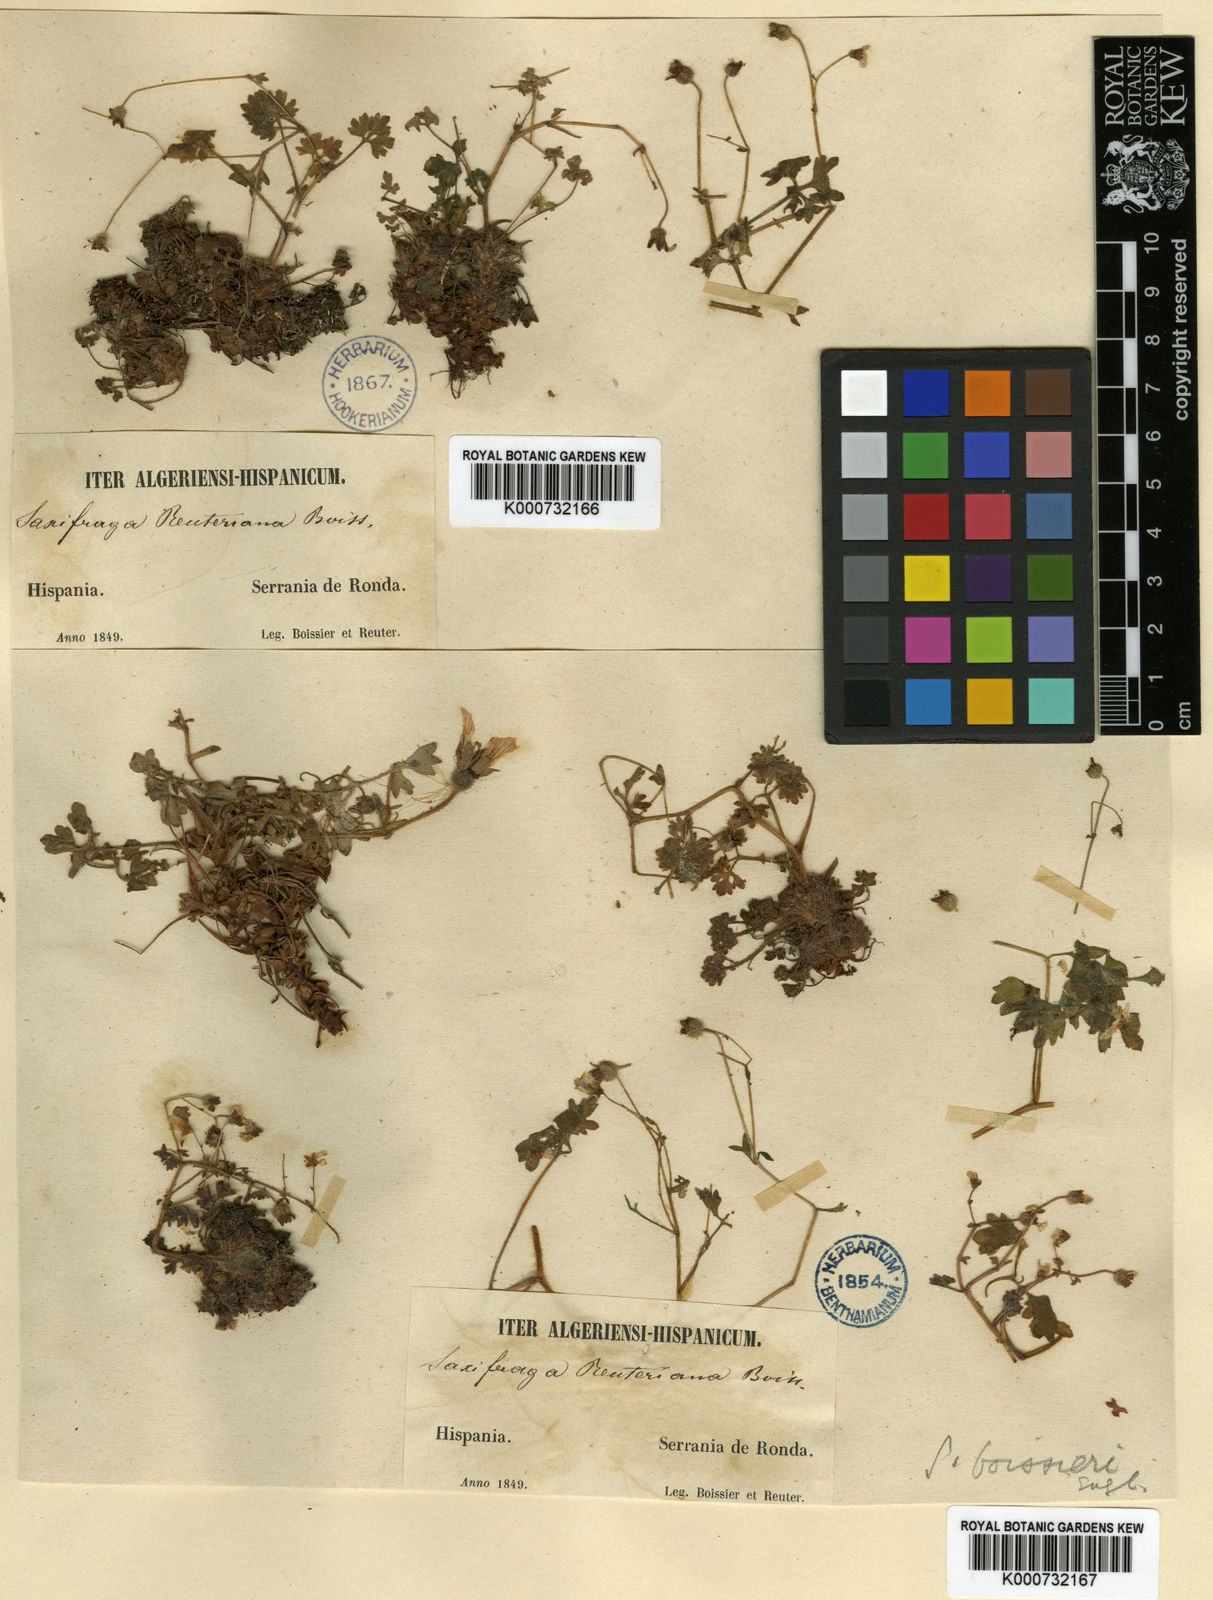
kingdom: Plantae
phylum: Tracheophyta
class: Magnoliopsida
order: Saxifragales
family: Saxifragaceae
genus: Saxifraga
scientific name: Saxifraga bourgaeana
